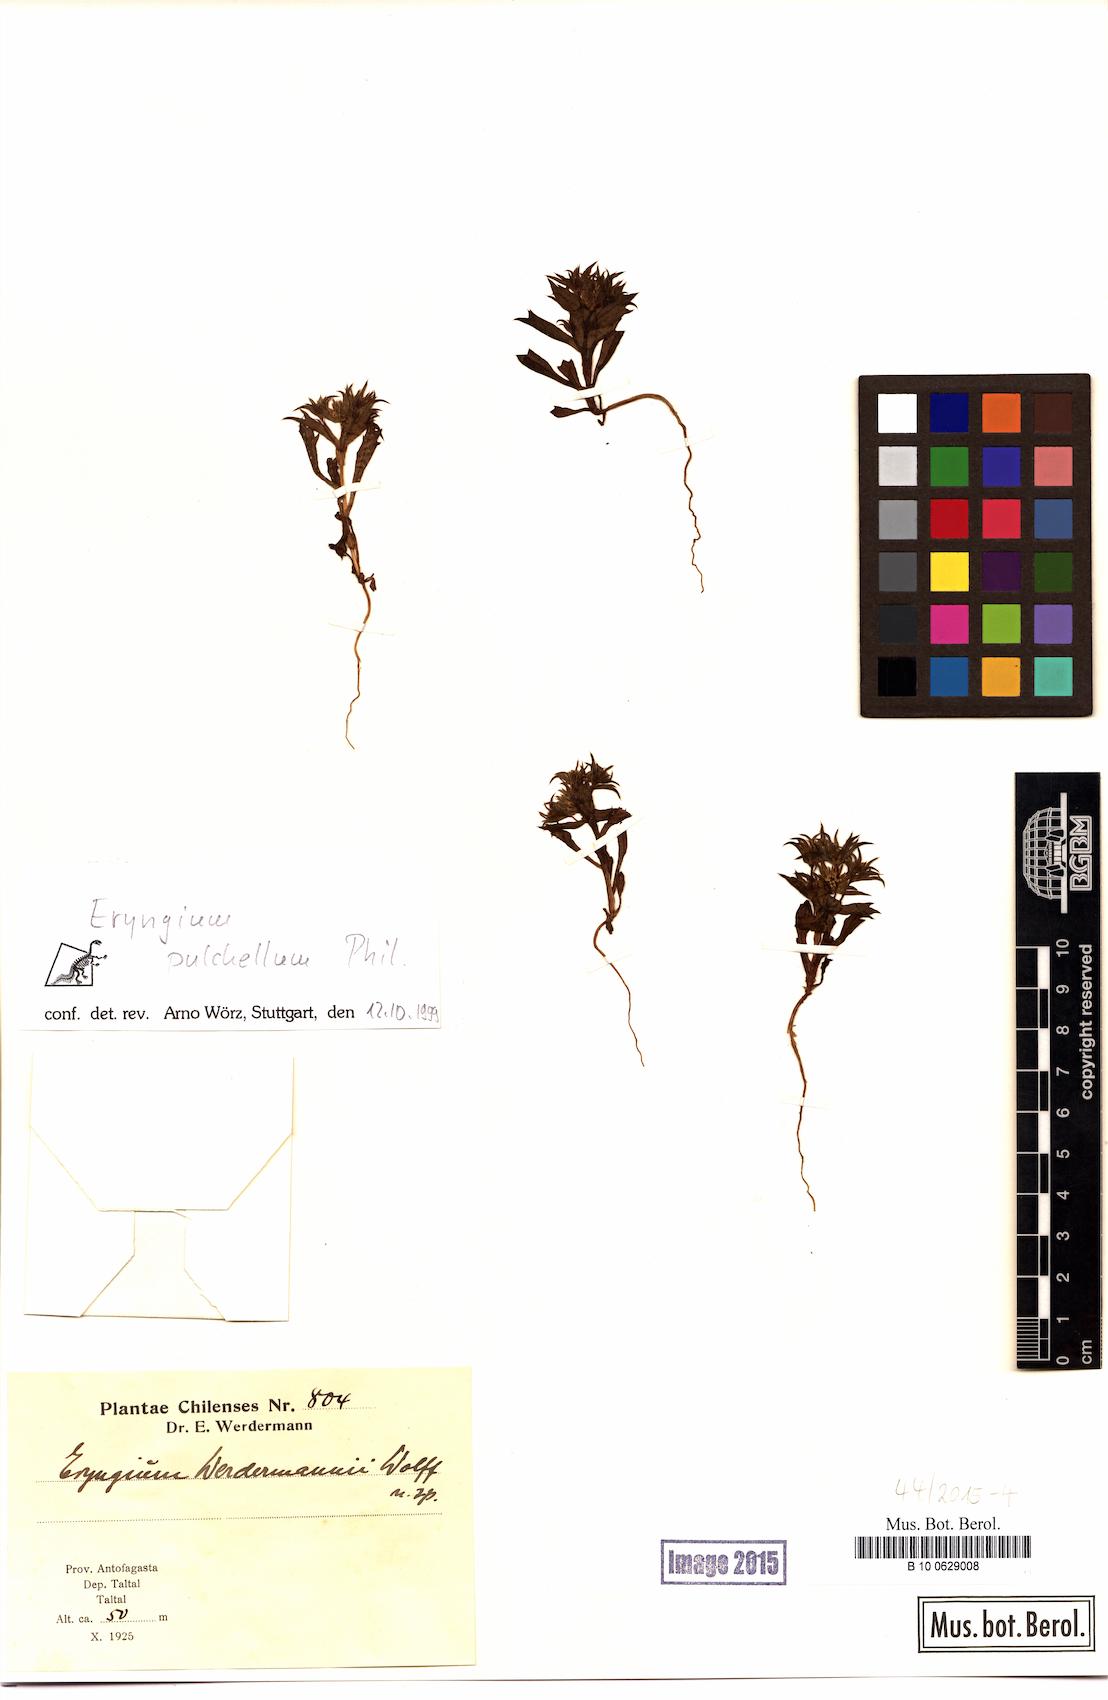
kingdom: Plantae
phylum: Tracheophyta
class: Magnoliopsida
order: Apiales
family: Apiaceae
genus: Eryngium
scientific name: Eryngium pulchellum
